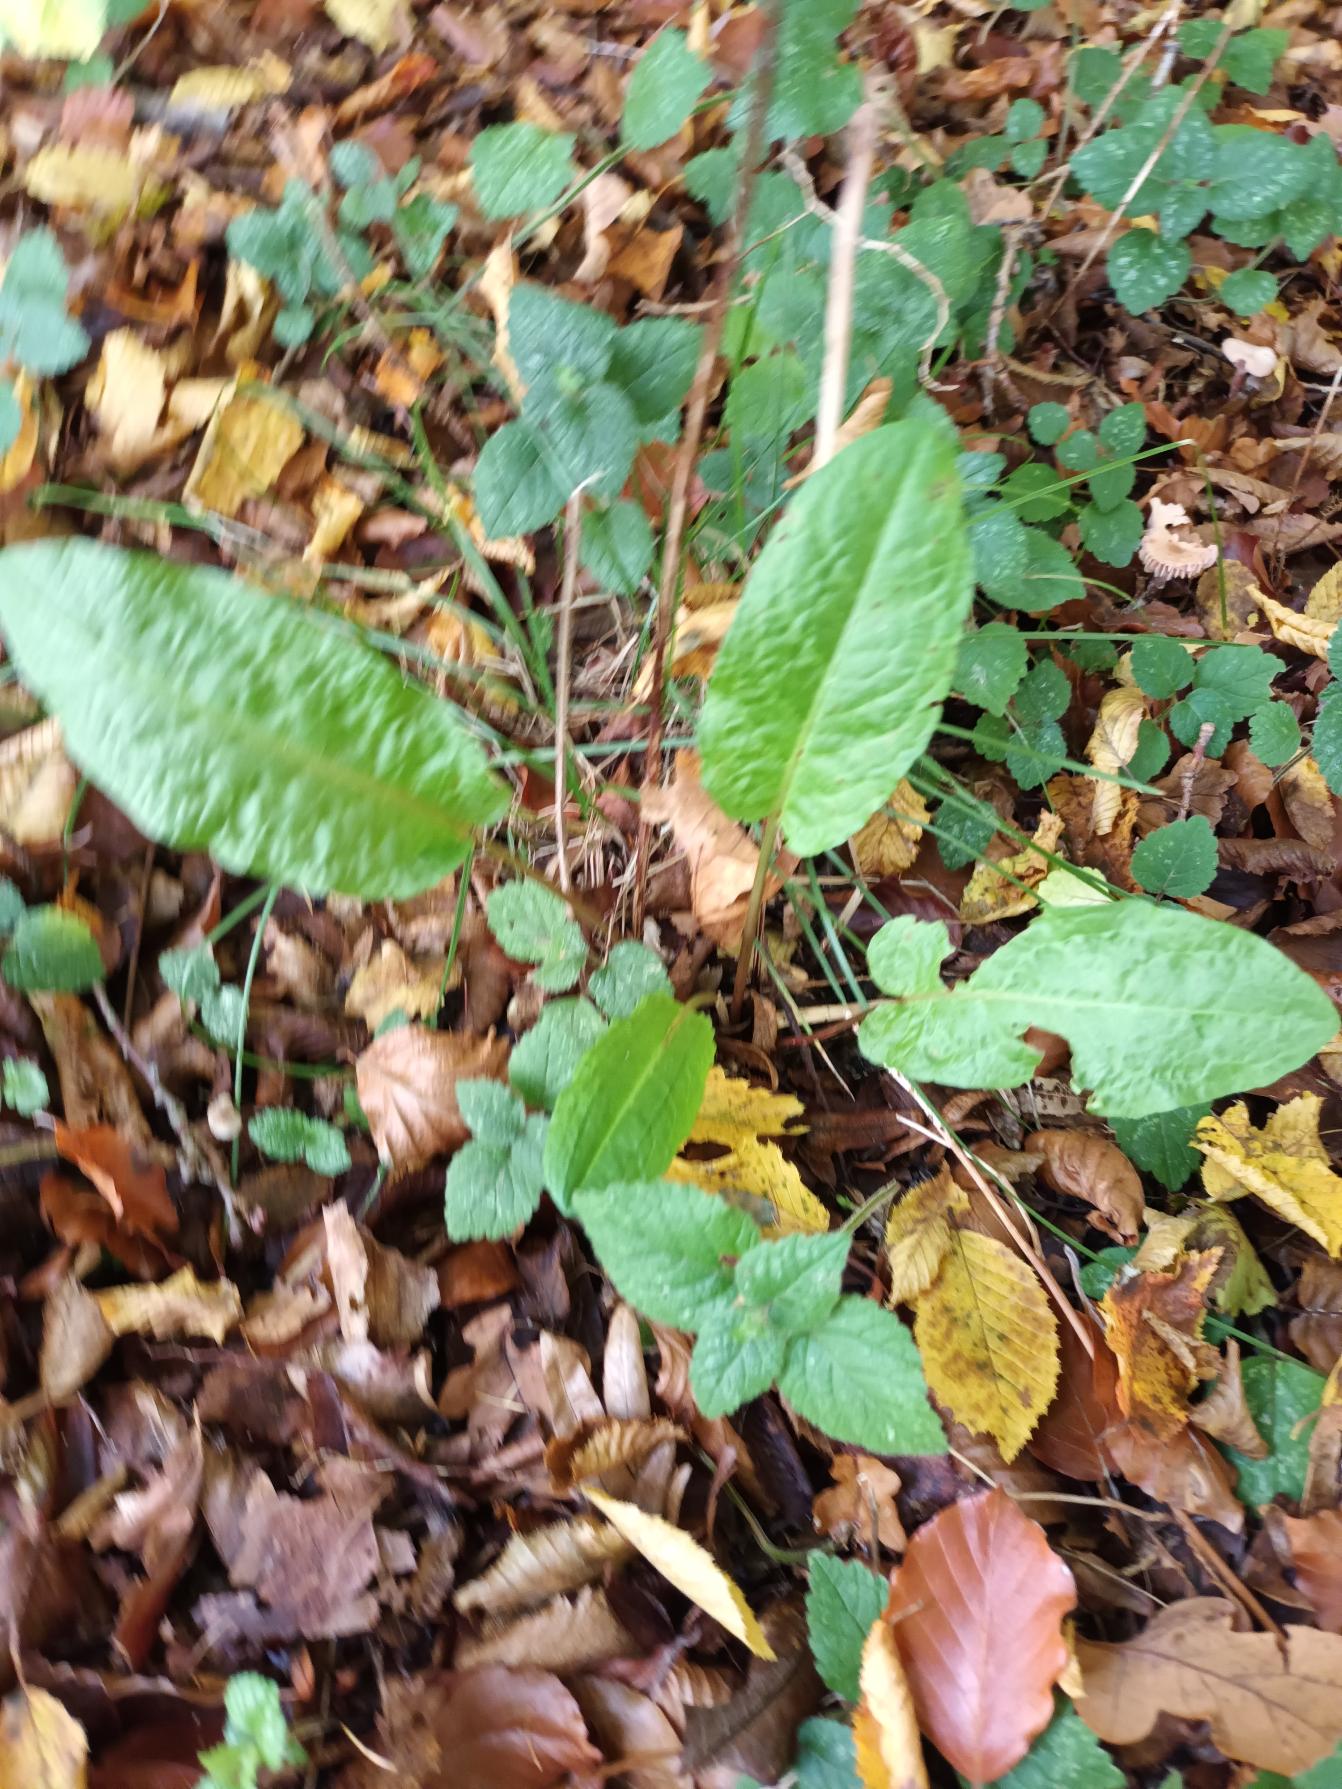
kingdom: Plantae
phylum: Tracheophyta
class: Magnoliopsida
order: Caryophyllales
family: Polygonaceae
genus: Rumex
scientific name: Rumex sanguineus
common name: Skov-skræppe
